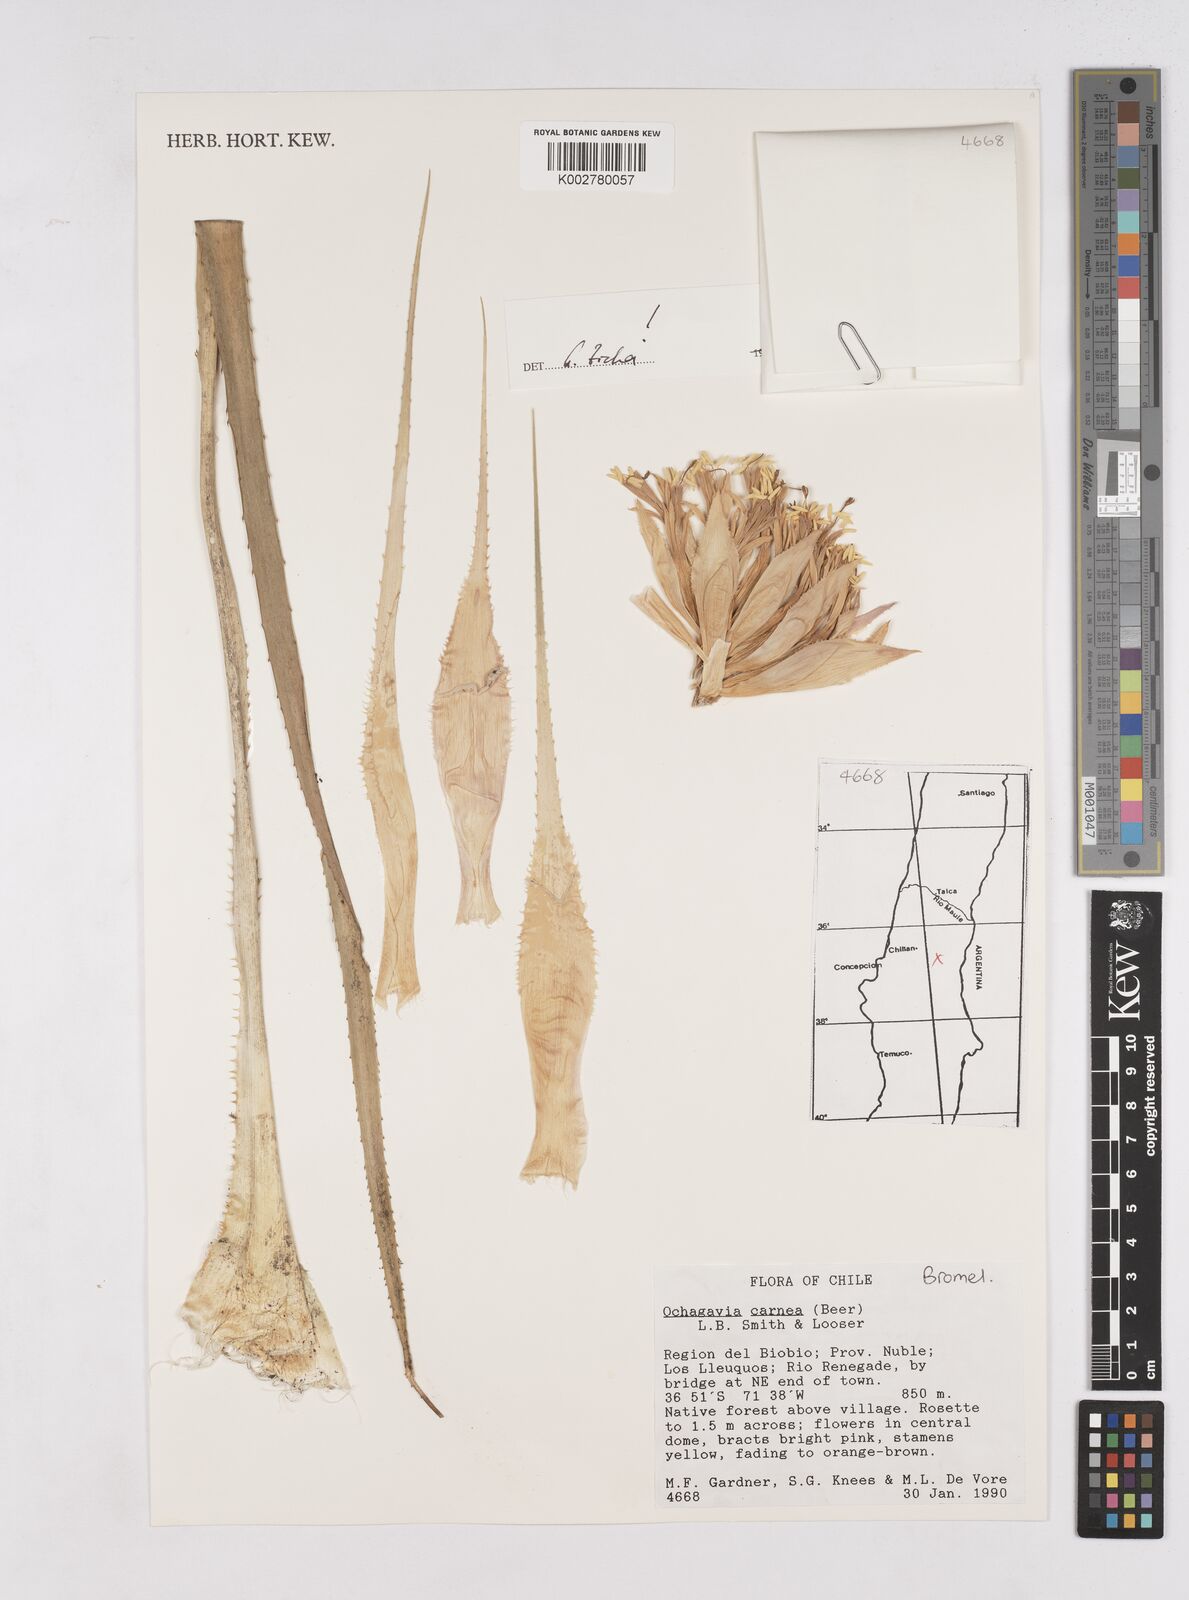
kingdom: Plantae
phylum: Tracheophyta
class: Liliopsida
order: Poales
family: Bromeliaceae
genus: Ochagavia
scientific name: Ochagavia carnea
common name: Tresco rhodostachys
